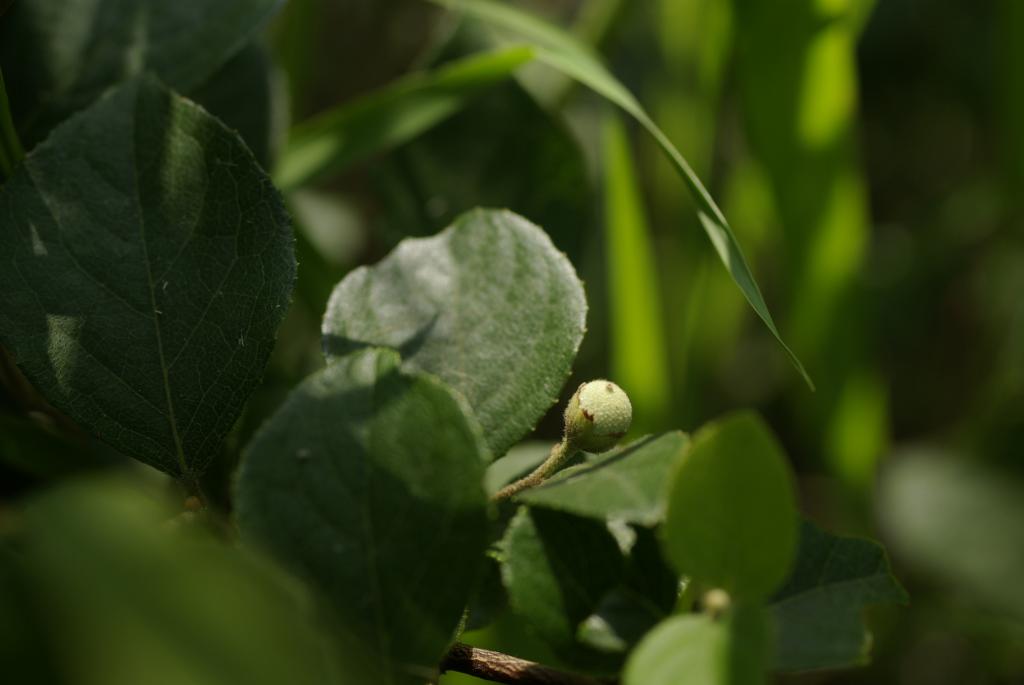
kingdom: Plantae
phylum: Tracheophyta
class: Magnoliopsida
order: Ericales
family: Styracaceae
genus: Styrax
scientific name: Styrax faberi
